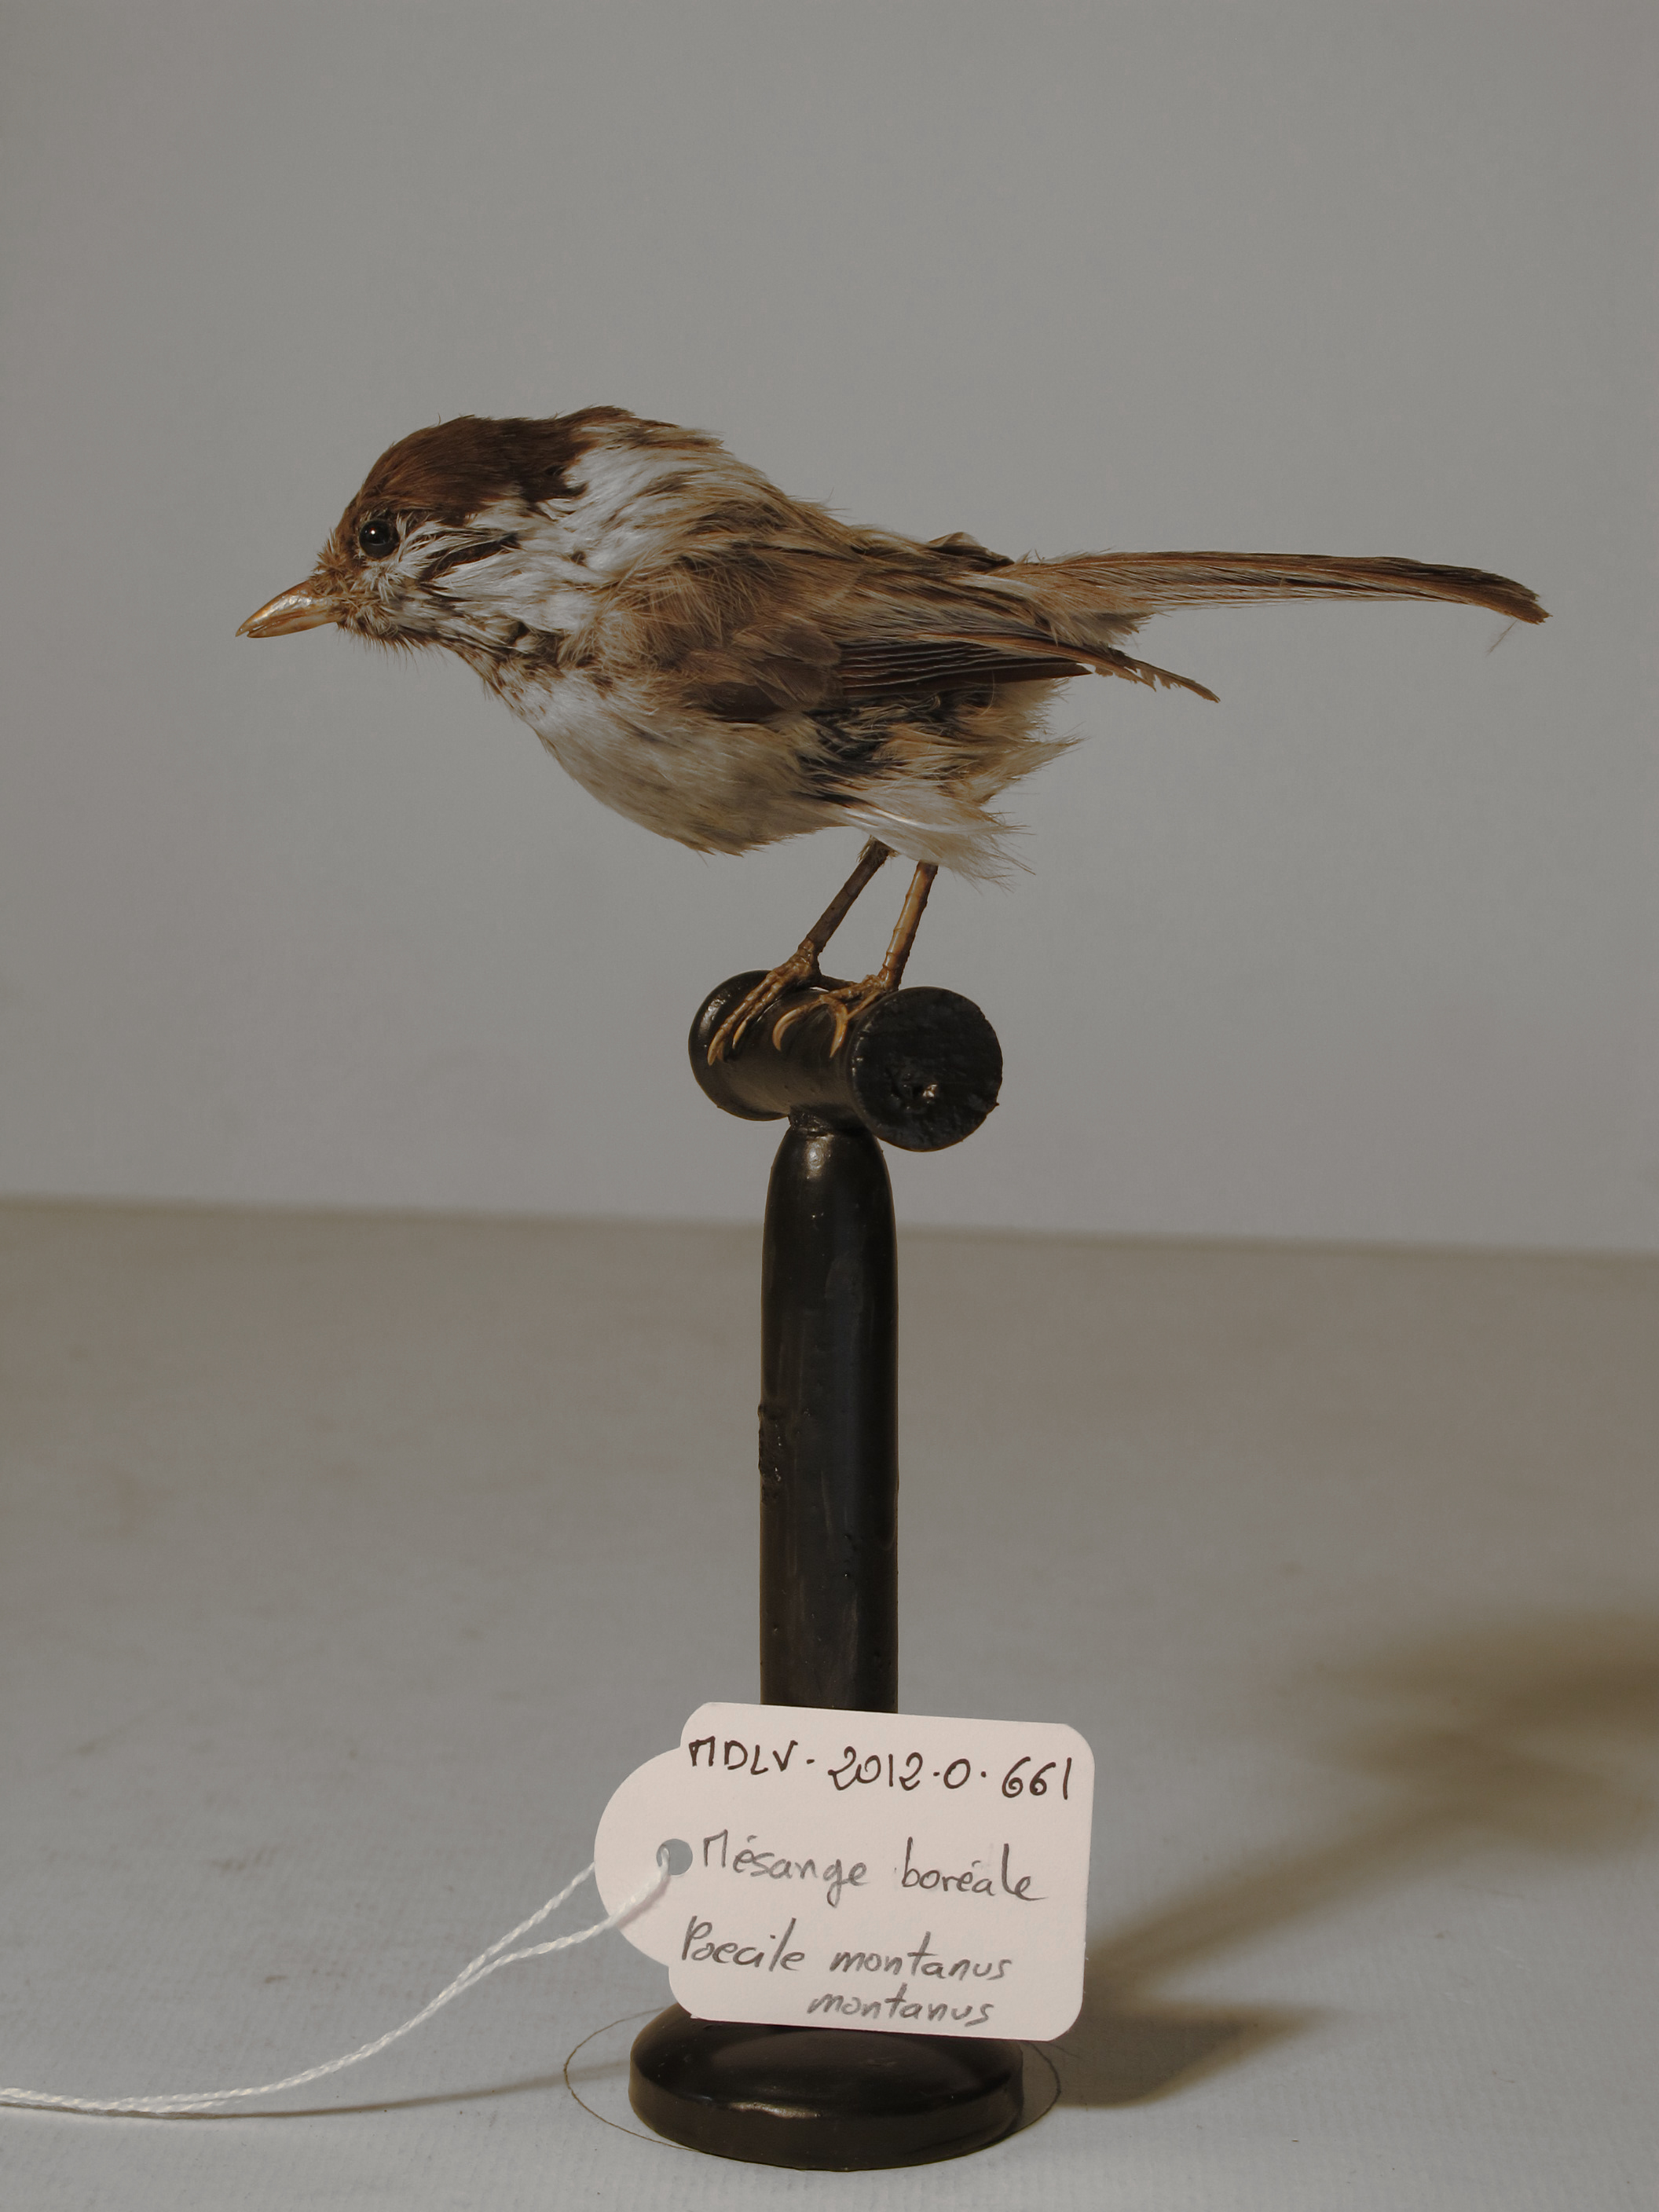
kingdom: Animalia
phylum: Chordata
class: Aves
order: Passeriformes
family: Paridae
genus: Poecile
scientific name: Poecile montanus
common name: Willow Tit
